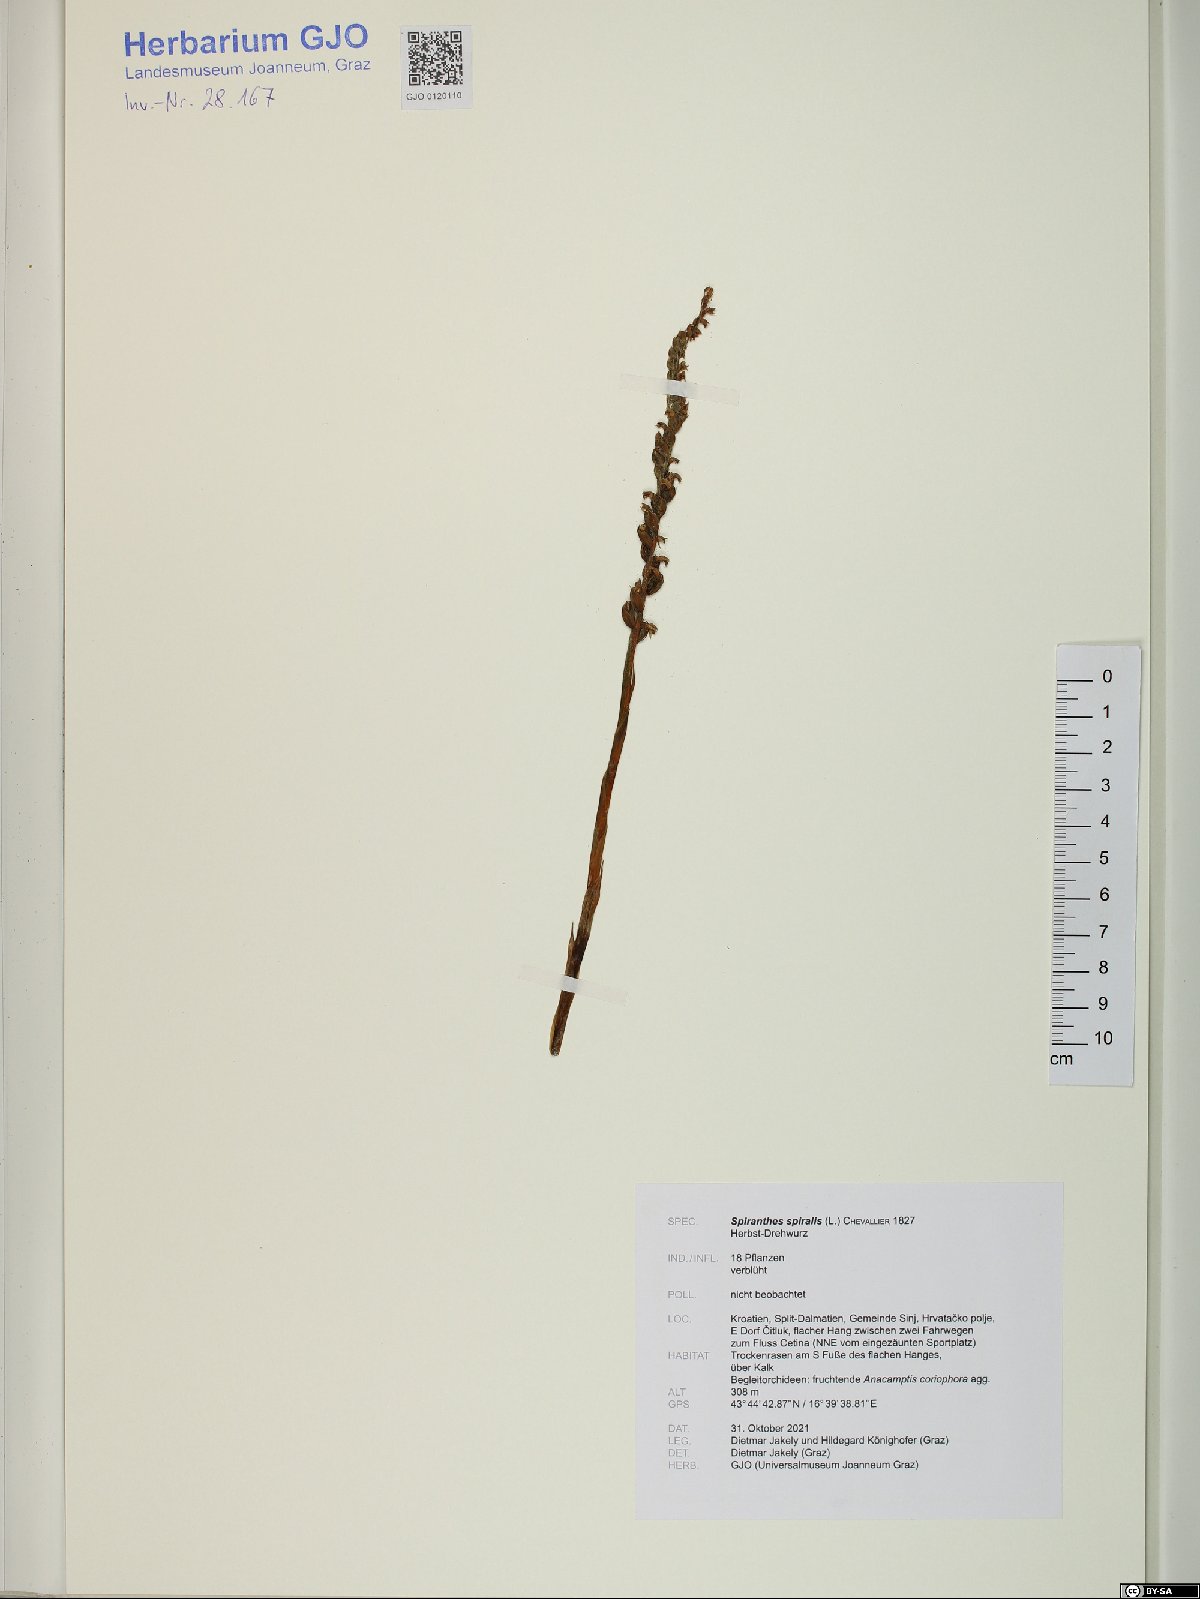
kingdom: Plantae
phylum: Tracheophyta
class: Liliopsida
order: Asparagales
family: Orchidaceae
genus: Spiranthes
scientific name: Spiranthes spiralis
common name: Autumn lady's-tresses
